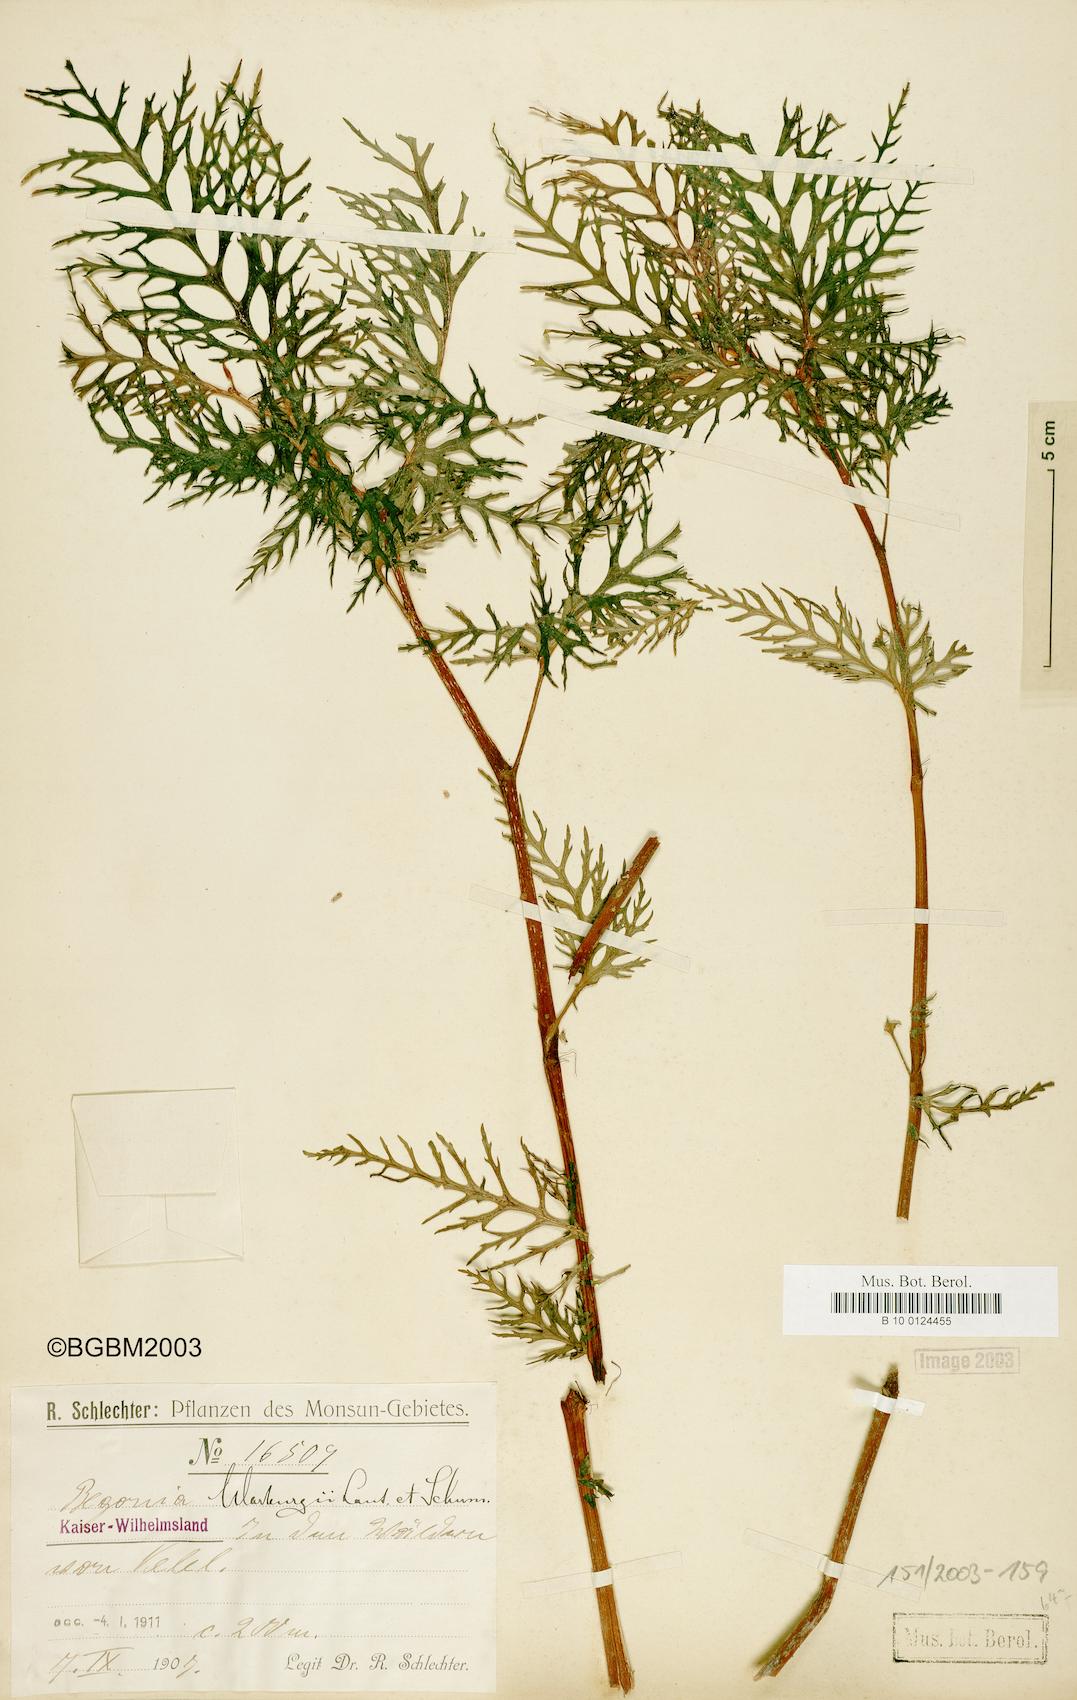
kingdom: Plantae
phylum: Tracheophyta
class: Magnoliopsida
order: Cucurbitales
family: Begoniaceae
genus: Begonia
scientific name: Begonia warburgii
